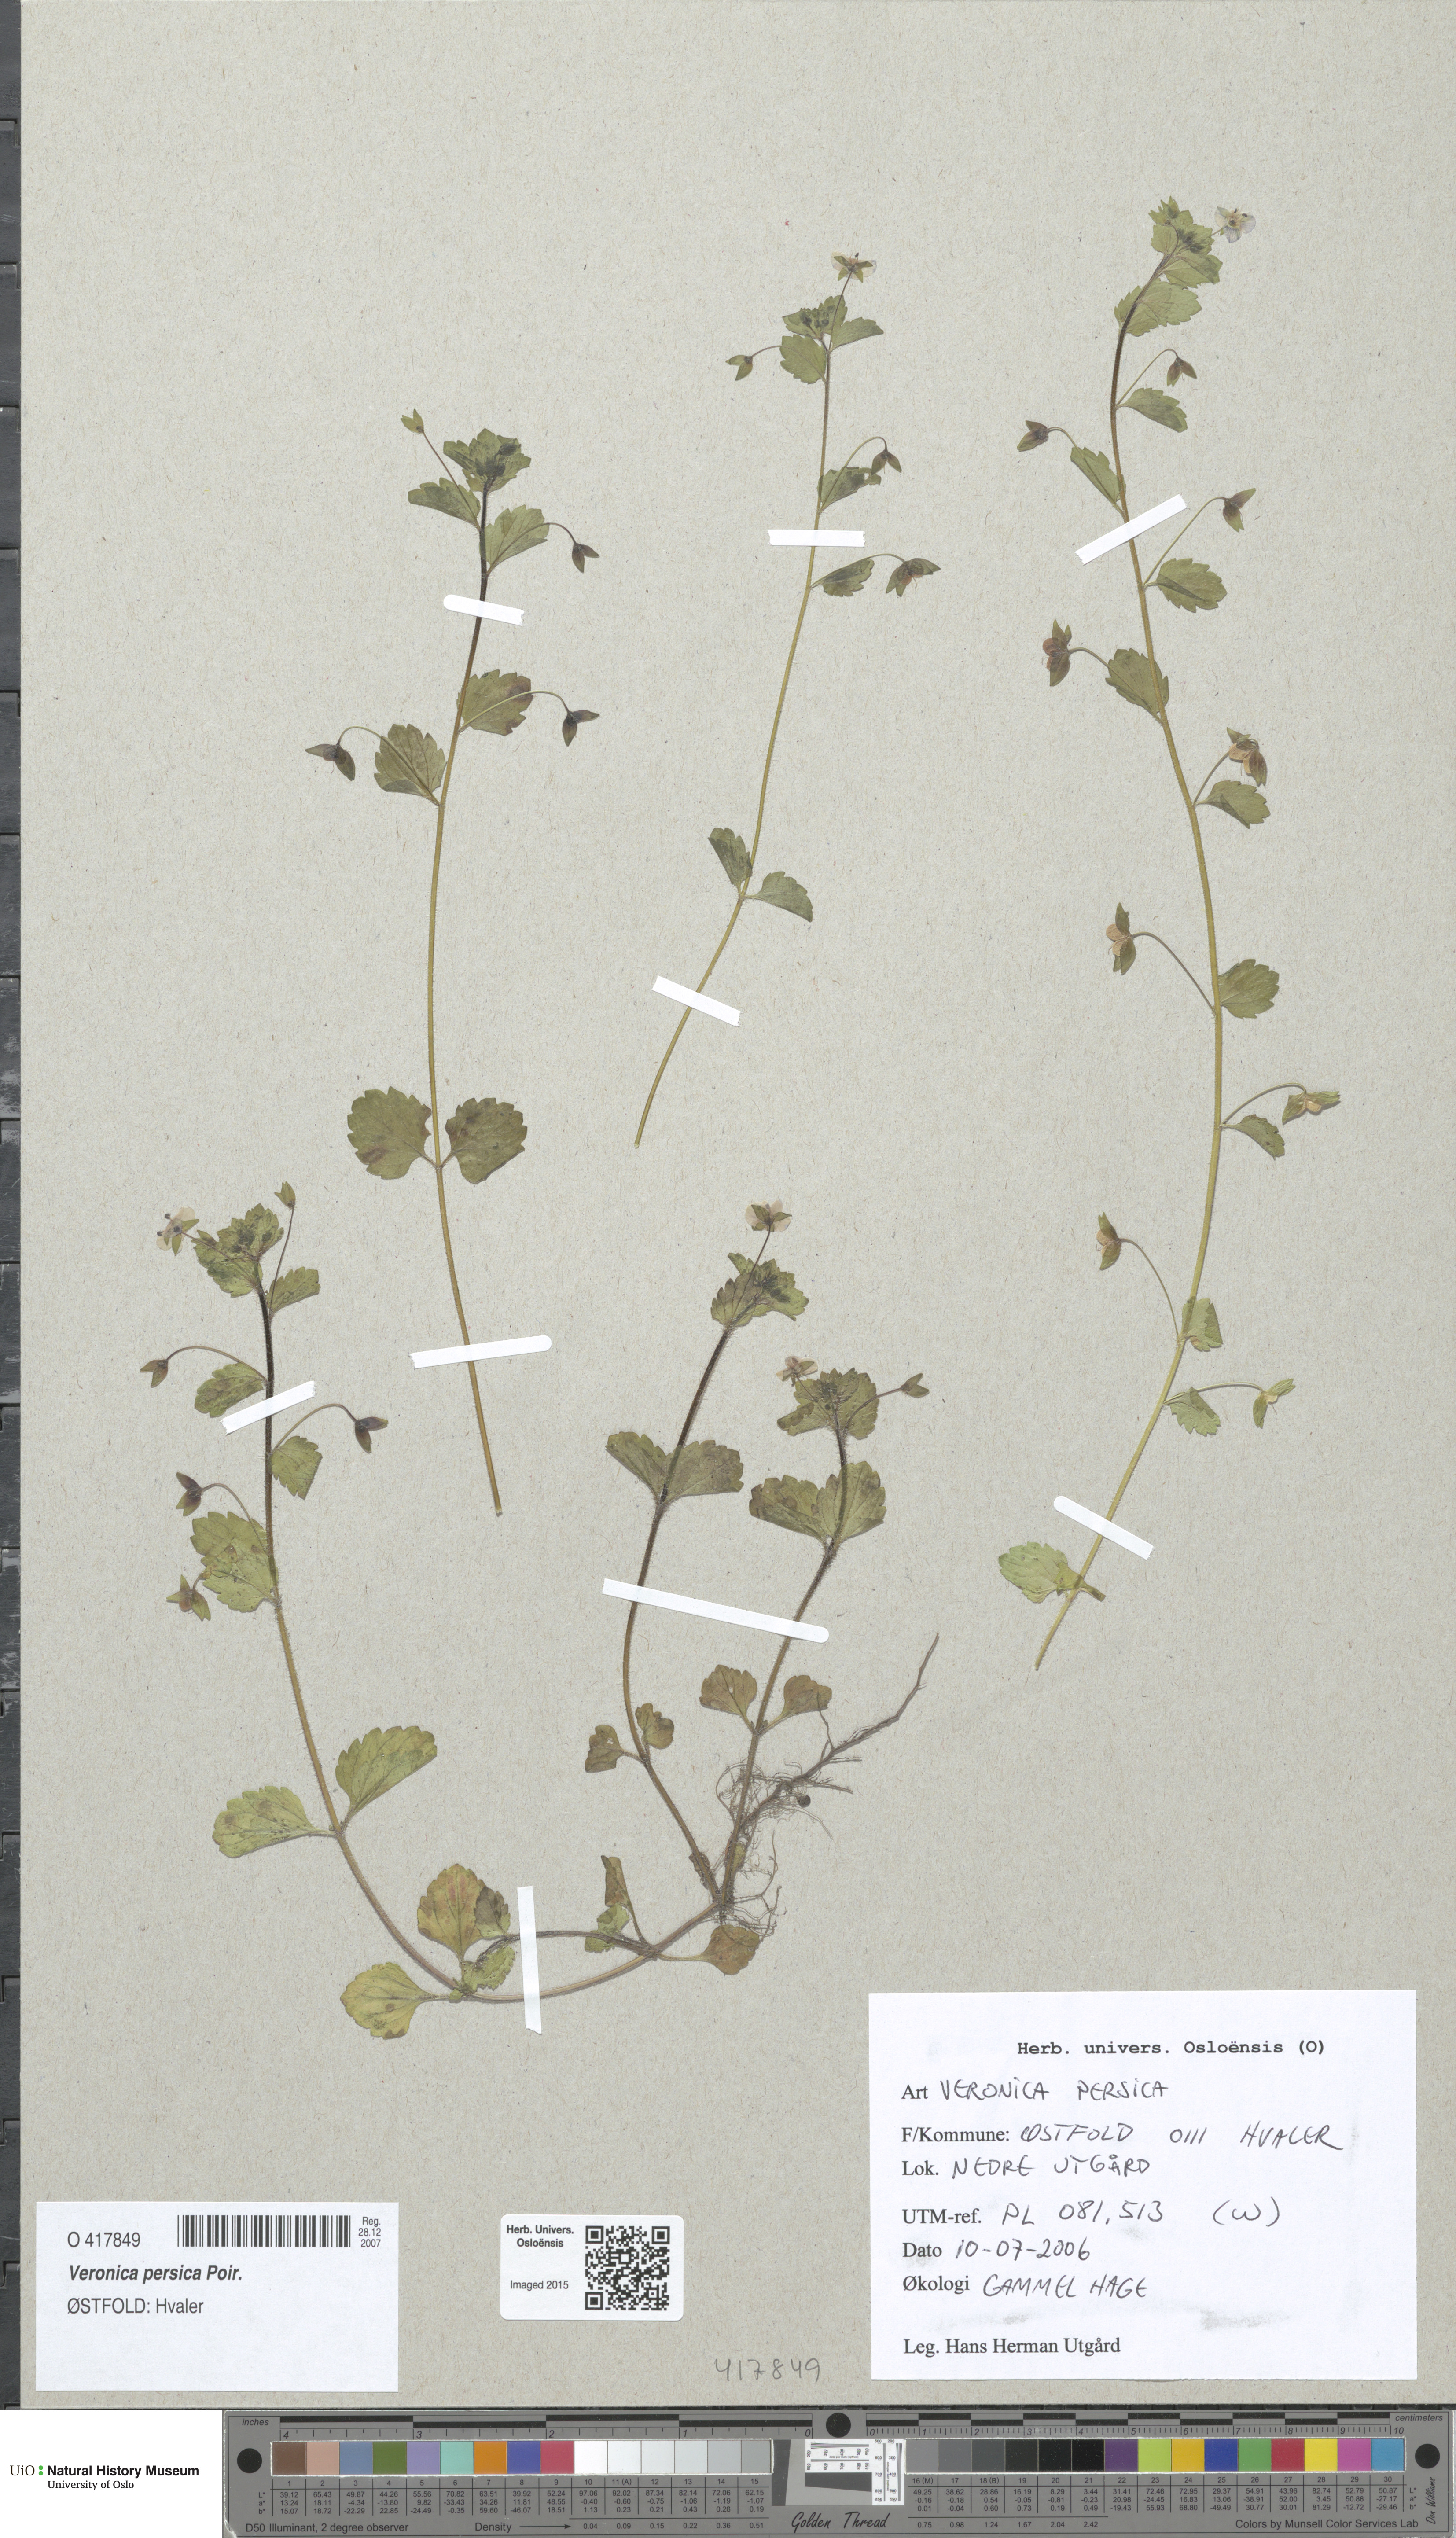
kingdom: Plantae
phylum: Tracheophyta
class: Magnoliopsida
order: Lamiales
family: Plantaginaceae
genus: Veronica
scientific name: Veronica persica
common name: Common field-speedwell
